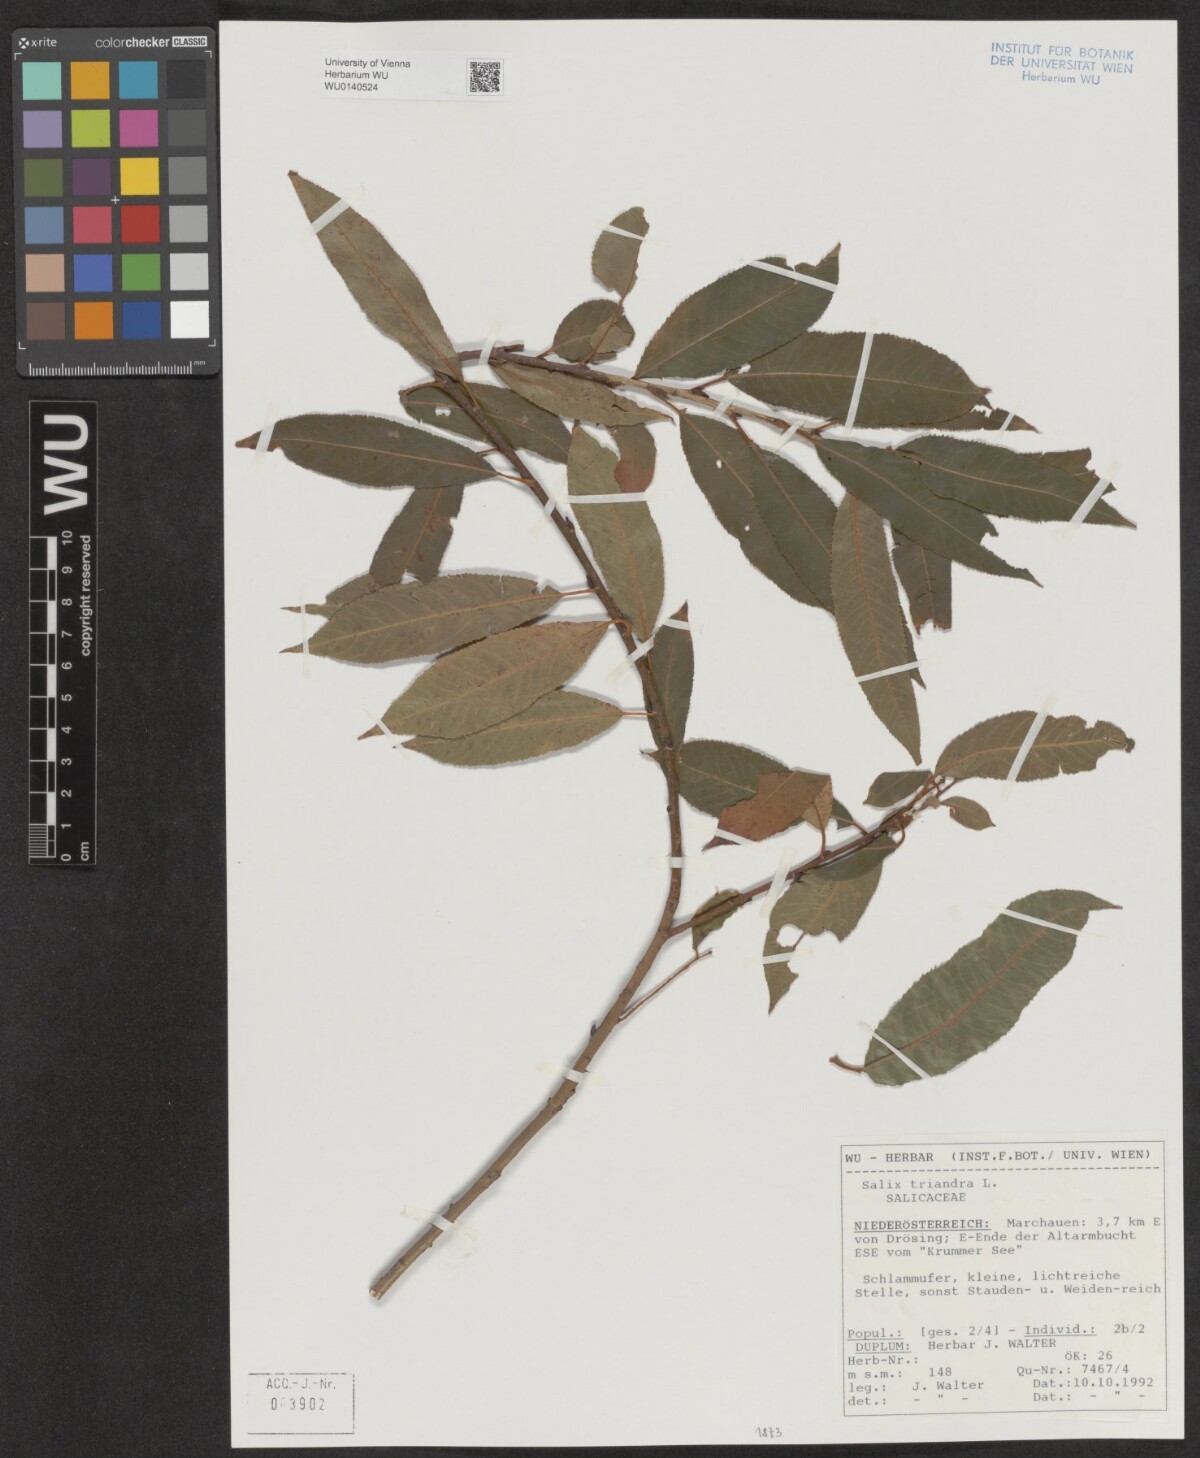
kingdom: Plantae
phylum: Tracheophyta
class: Magnoliopsida
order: Malpighiales
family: Salicaceae
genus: Salix
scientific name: Salix triandra
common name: Almond willow
